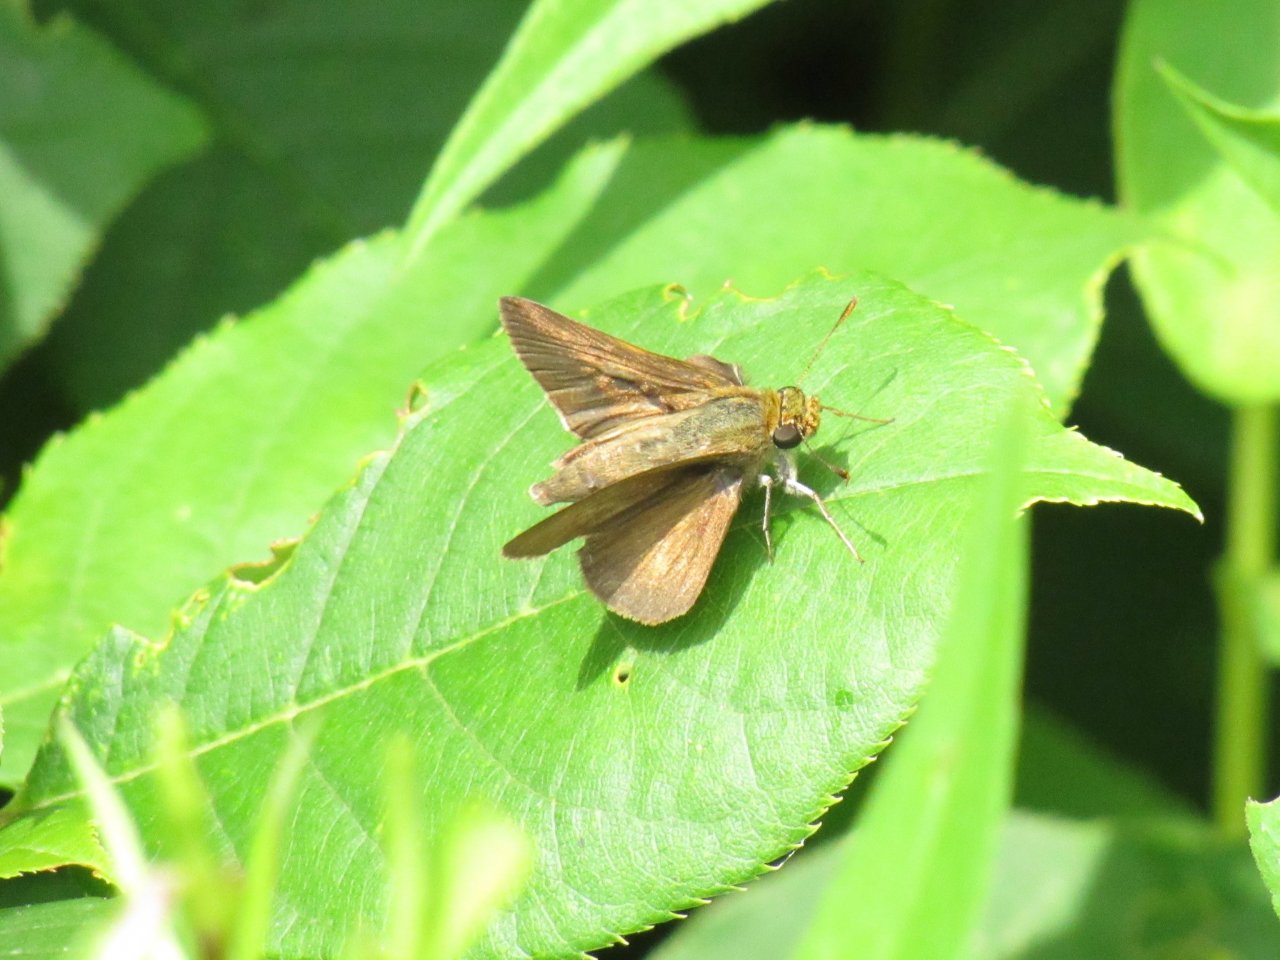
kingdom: Animalia
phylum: Arthropoda
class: Insecta
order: Lepidoptera
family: Hesperiidae
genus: Euphyes
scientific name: Euphyes vestris
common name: Dun Skipper
